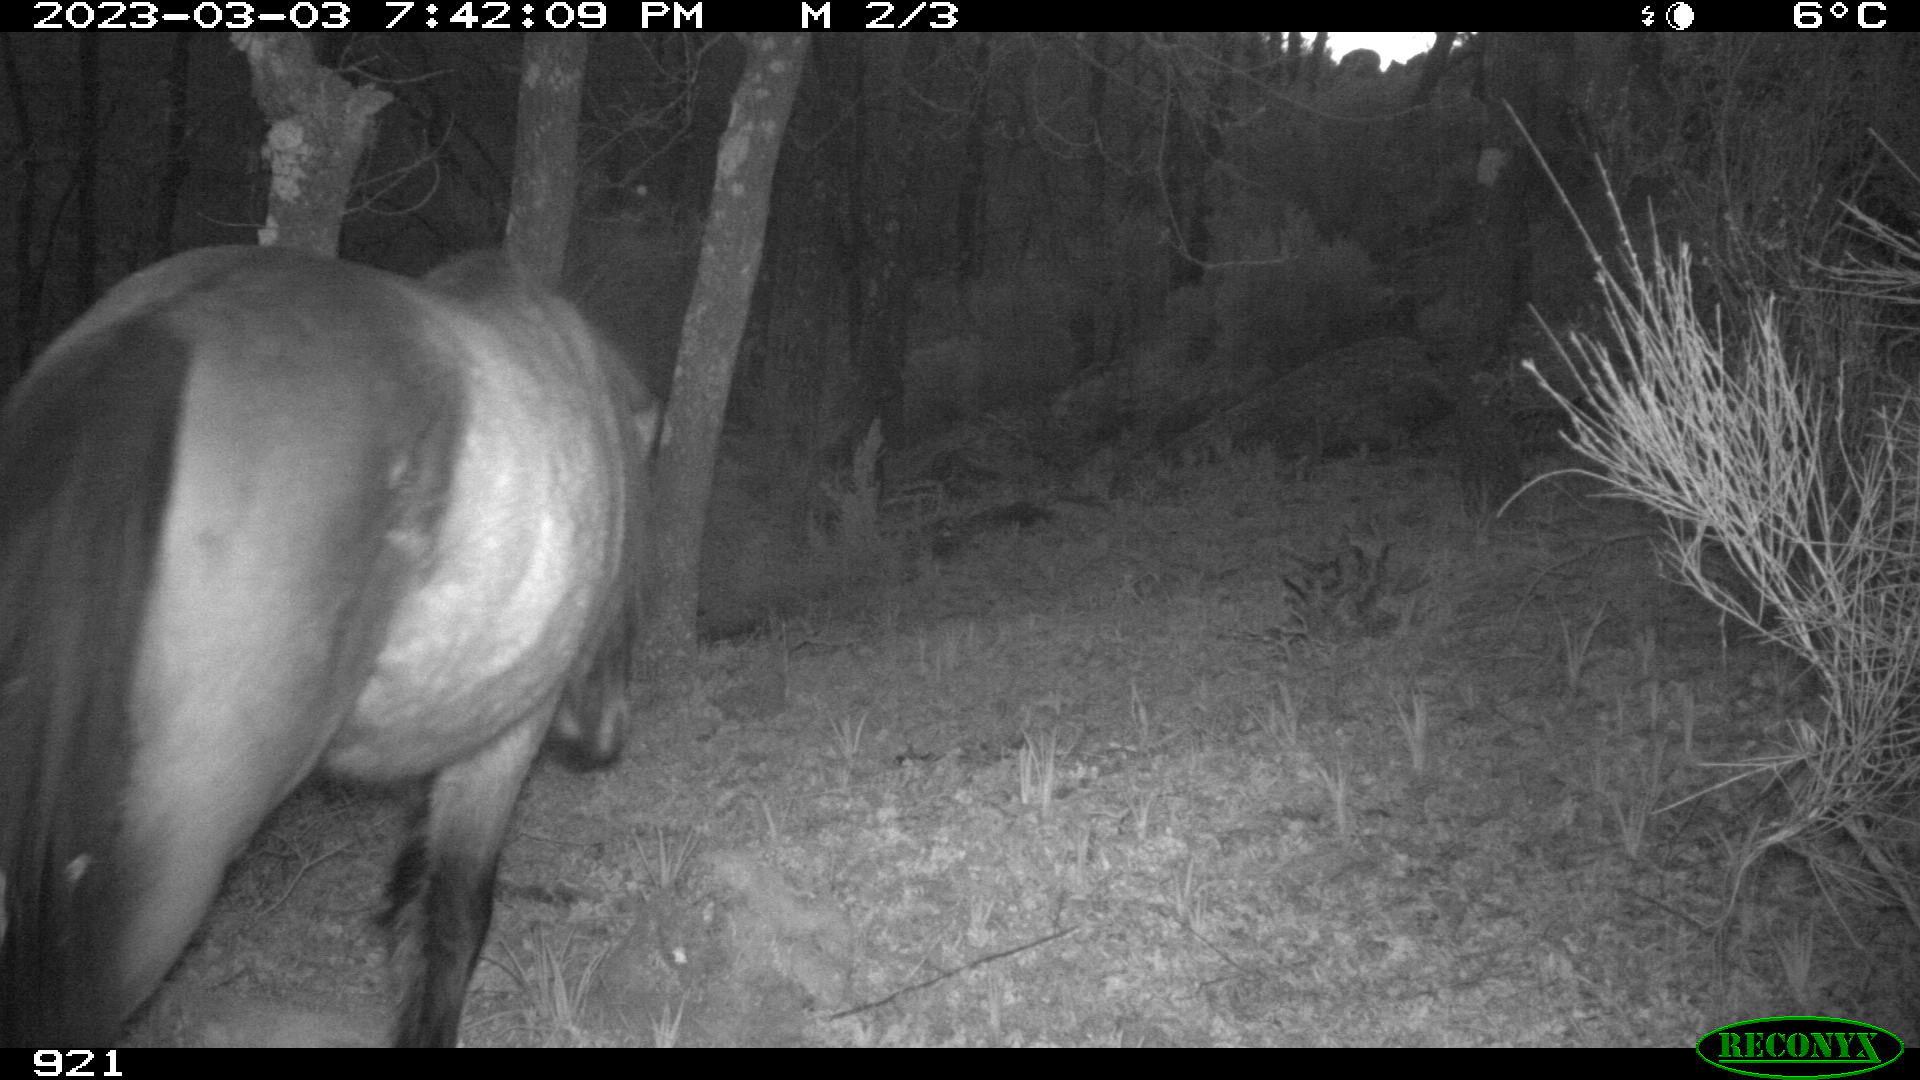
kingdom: Animalia
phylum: Chordata
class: Mammalia
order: Perissodactyla
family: Equidae
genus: Equus
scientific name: Equus caballus
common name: Horse
